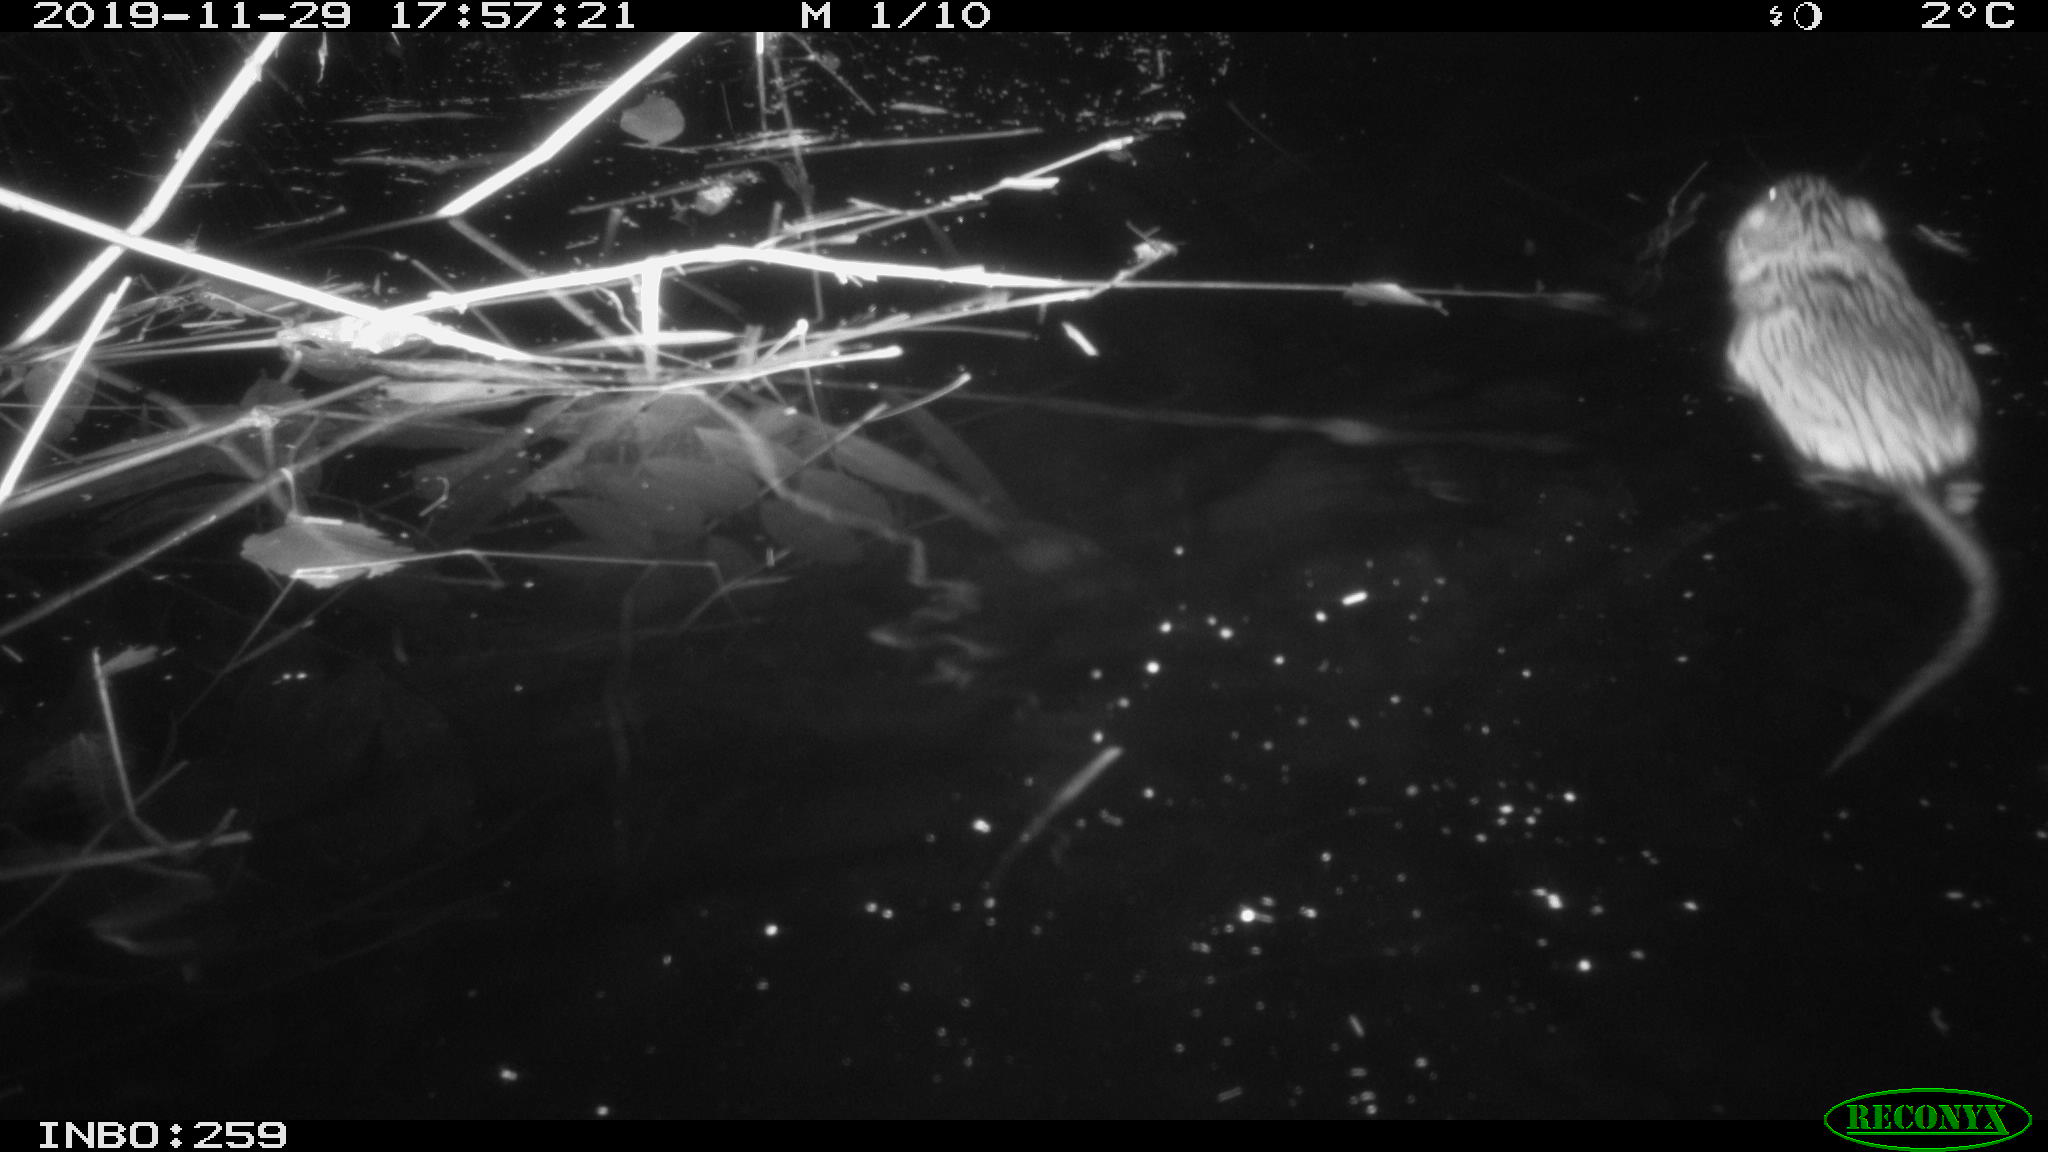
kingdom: Animalia
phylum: Chordata
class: Mammalia
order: Rodentia
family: Cricetidae
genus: Ondatra
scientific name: Ondatra zibethicus
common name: Muskrat
